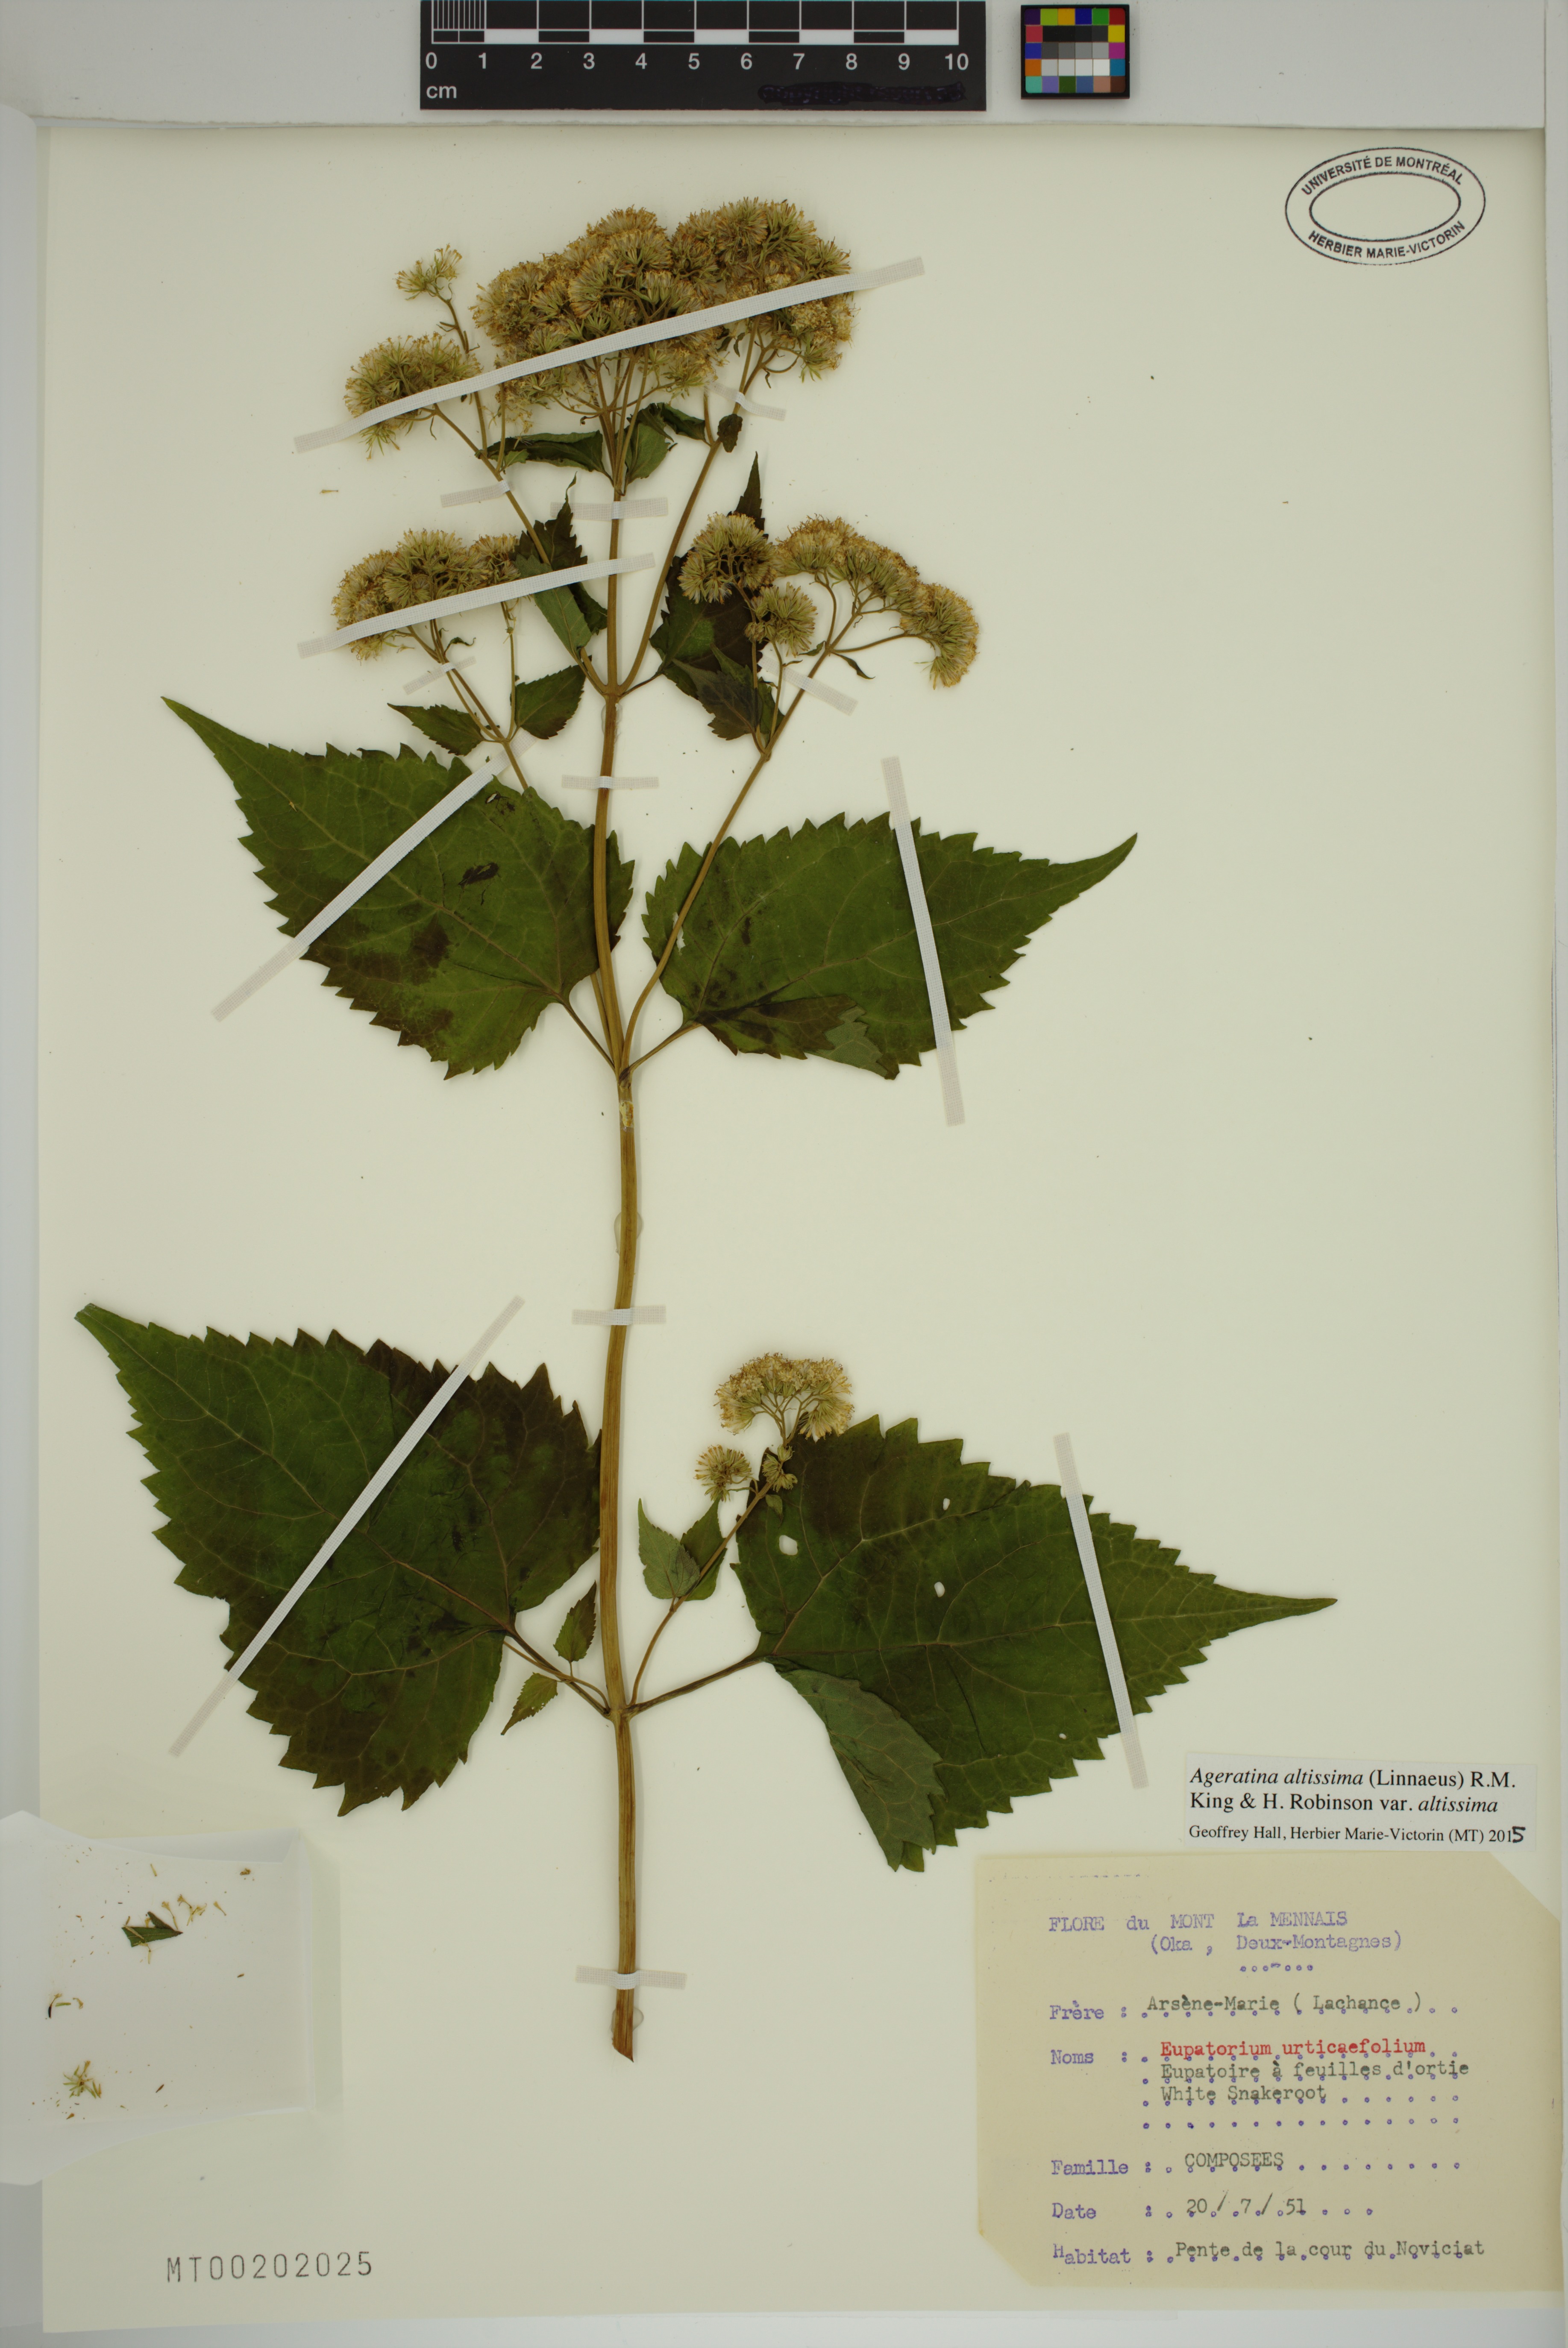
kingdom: Plantae
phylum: Tracheophyta
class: Magnoliopsida
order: Asterales
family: Asteraceae
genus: Ageratina
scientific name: Ageratina altissima
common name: White snakeroot
